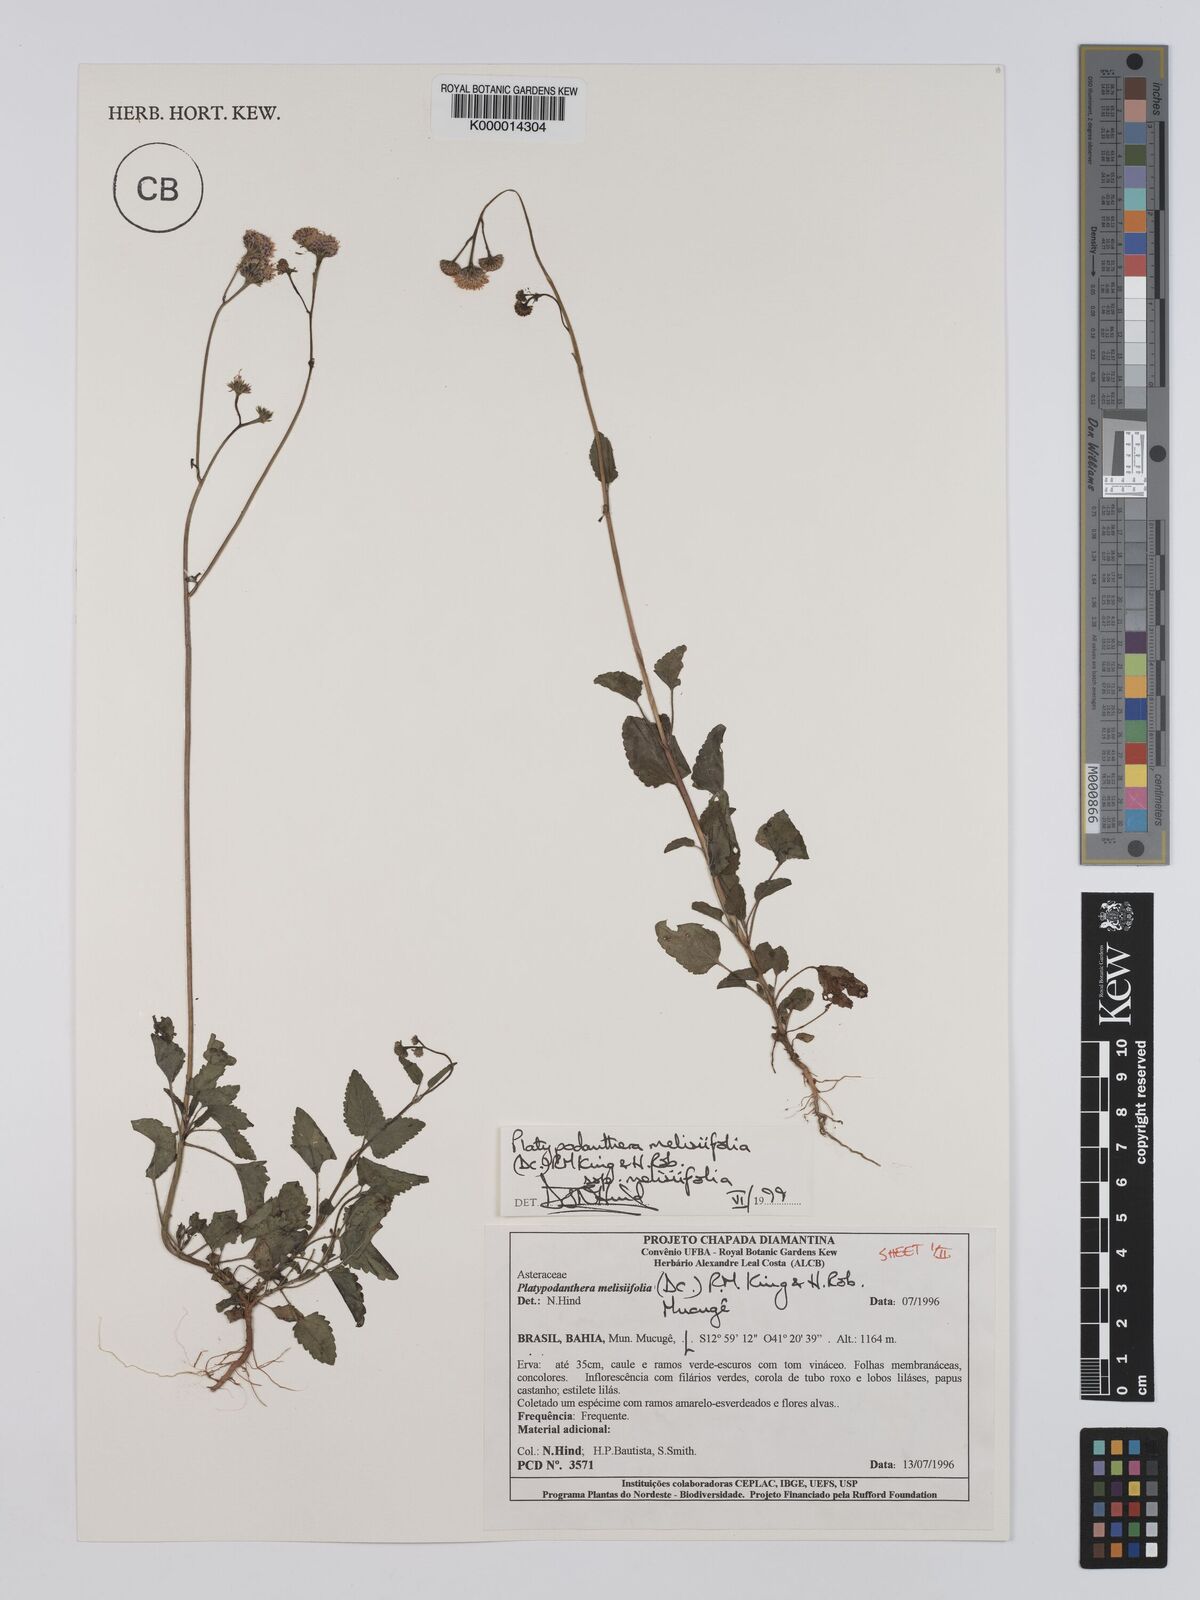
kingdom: Plantae
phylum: Tracheophyta
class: Magnoliopsida
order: Asterales
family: Asteraceae
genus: Platypodanthera
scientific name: Platypodanthera melissifolia
